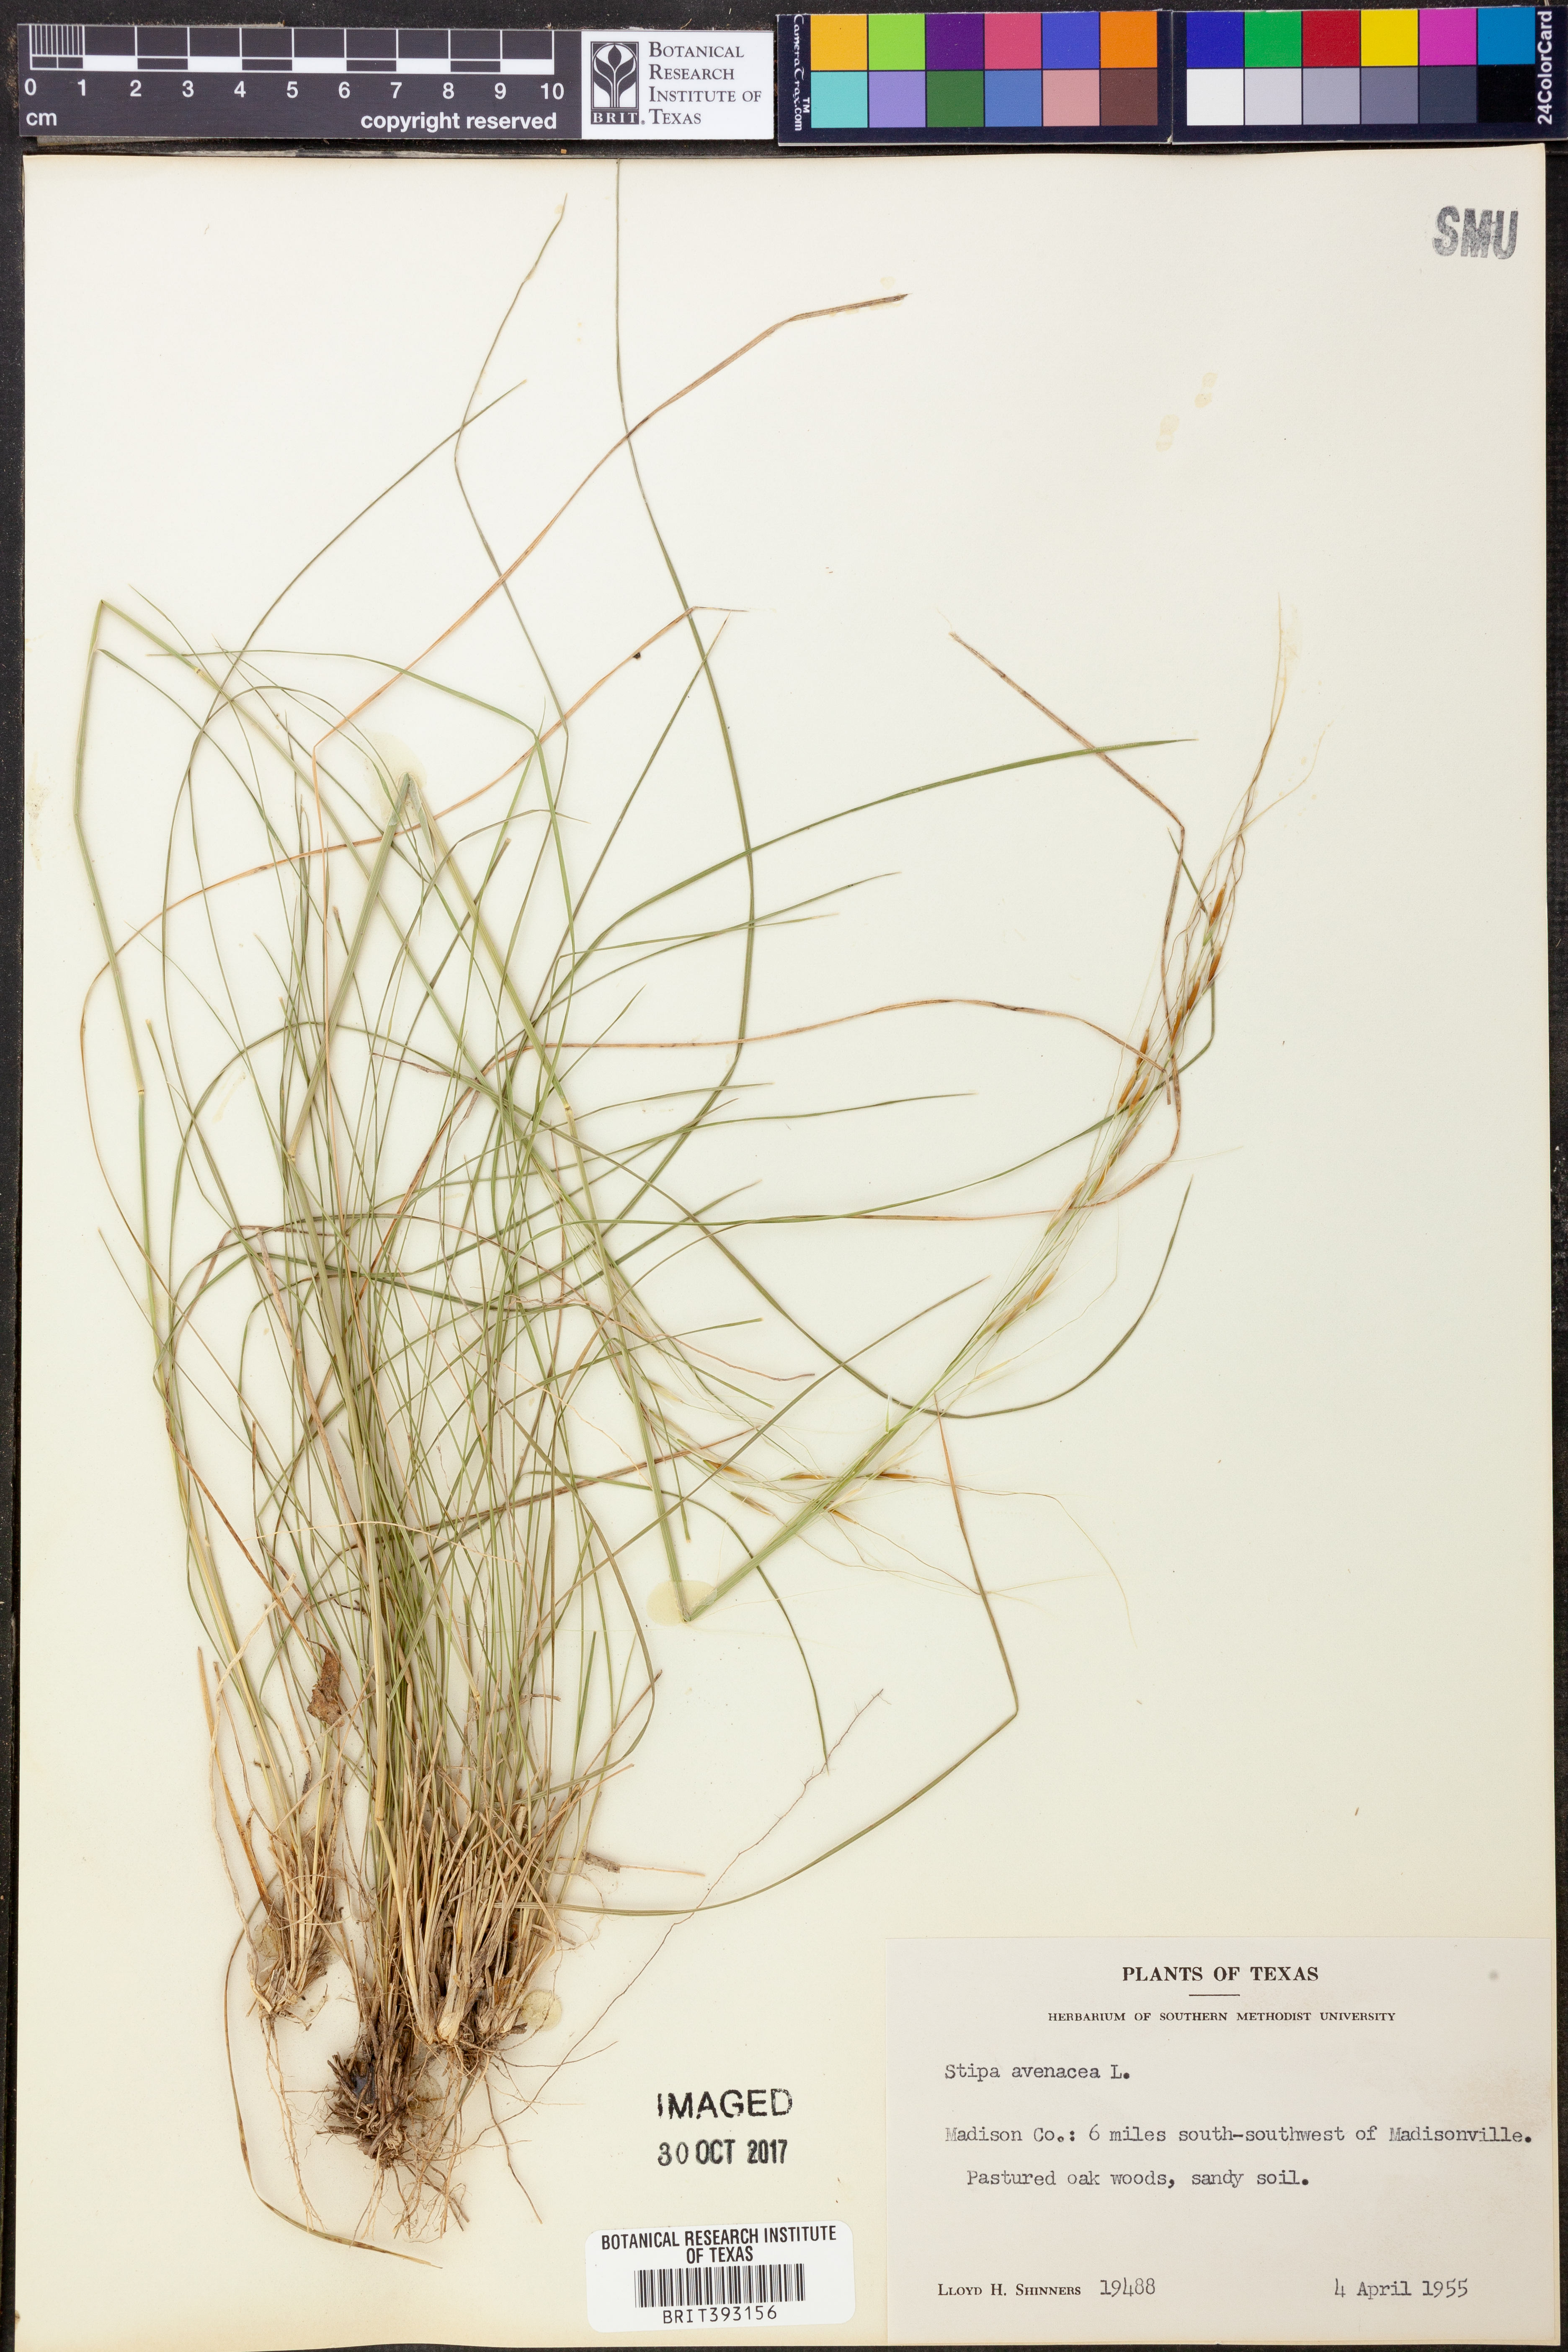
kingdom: Plantae
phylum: Tracheophyta
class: Liliopsida
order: Poales
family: Poaceae
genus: Piptochaetium
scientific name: Piptochaetium avenaceum
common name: Black bunchgrass
